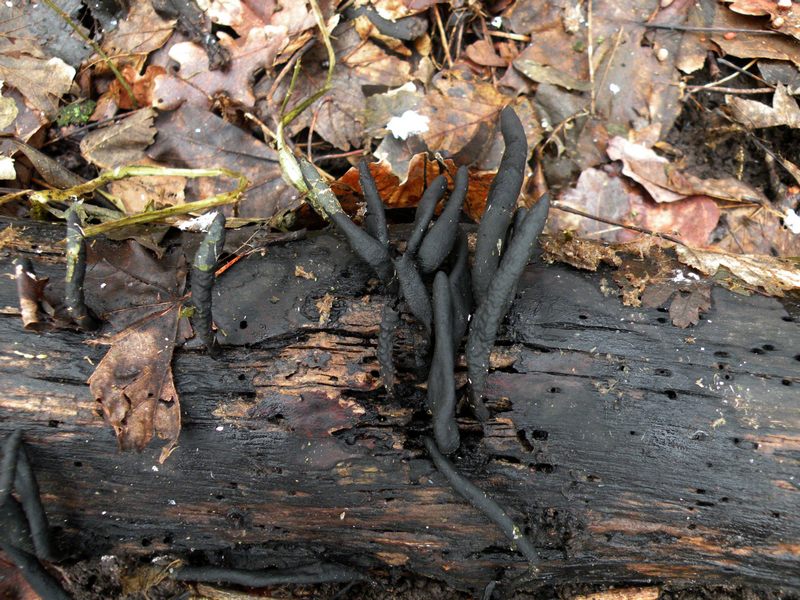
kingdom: Fungi
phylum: Ascomycota
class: Sordariomycetes
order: Xylariales
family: Xylariaceae
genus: Xylaria
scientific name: Xylaria longipes
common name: slank stødsvamp
